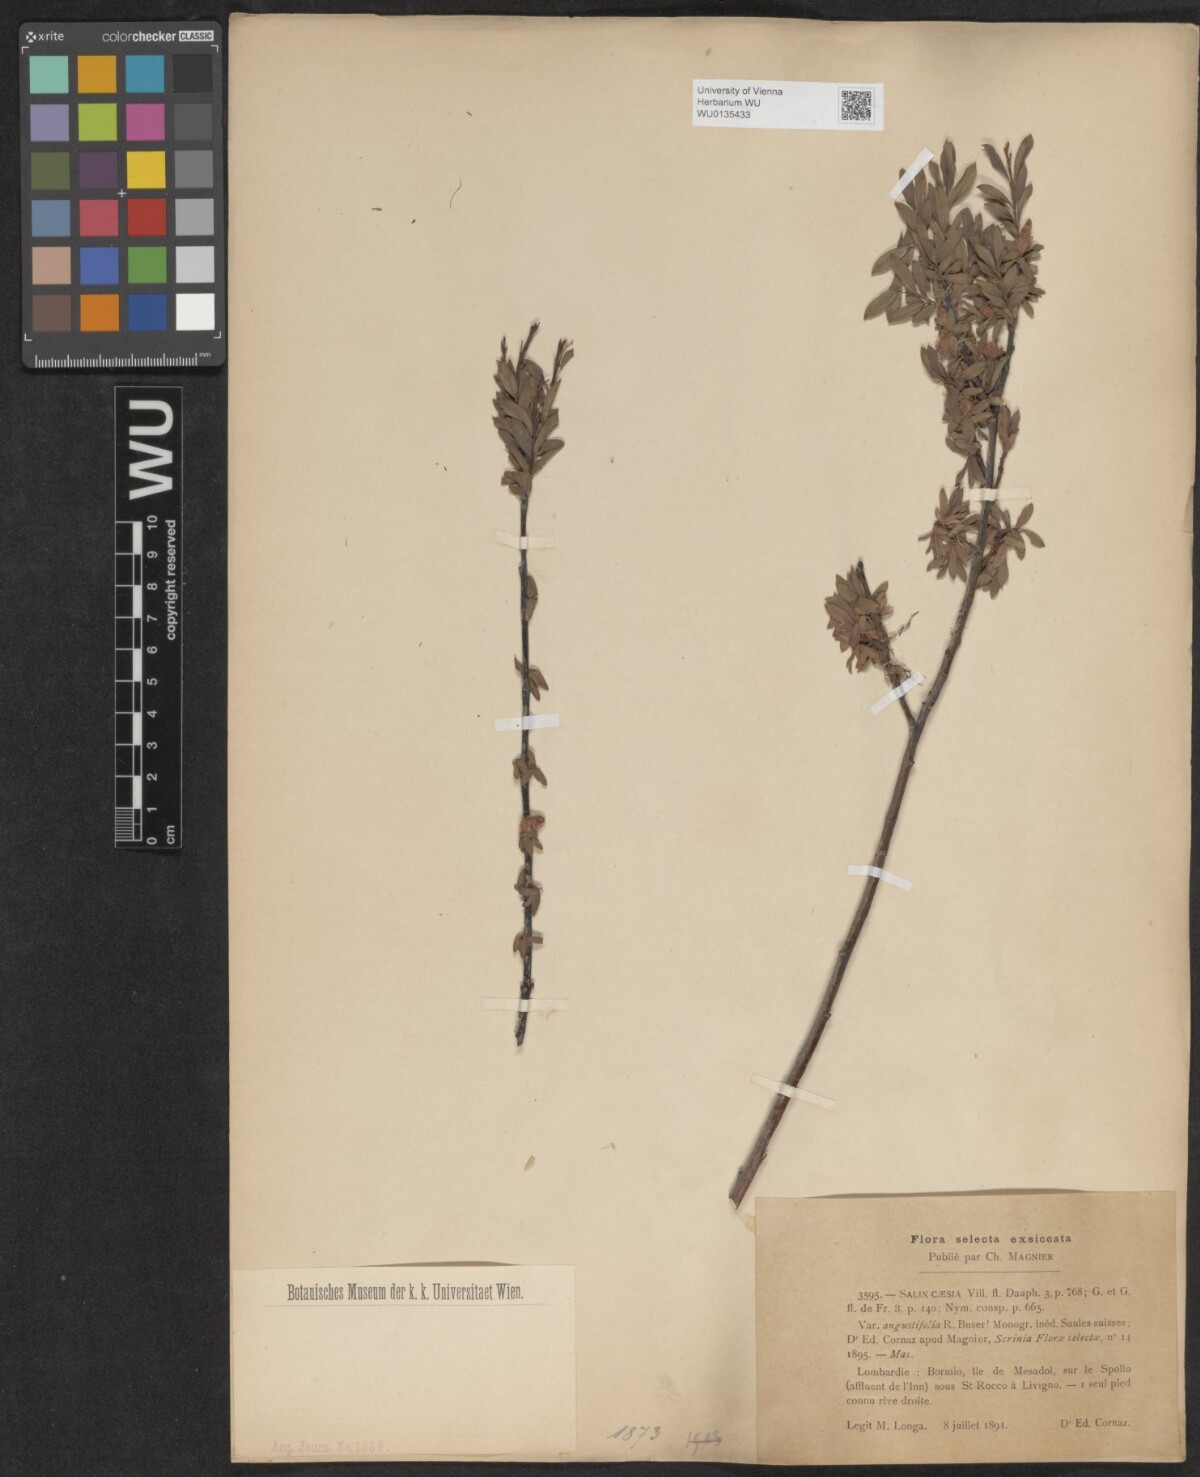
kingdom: Plantae
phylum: Tracheophyta
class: Magnoliopsida
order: Malpighiales
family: Salicaceae
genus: Salix
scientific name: Salix caesia
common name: Blue willow
